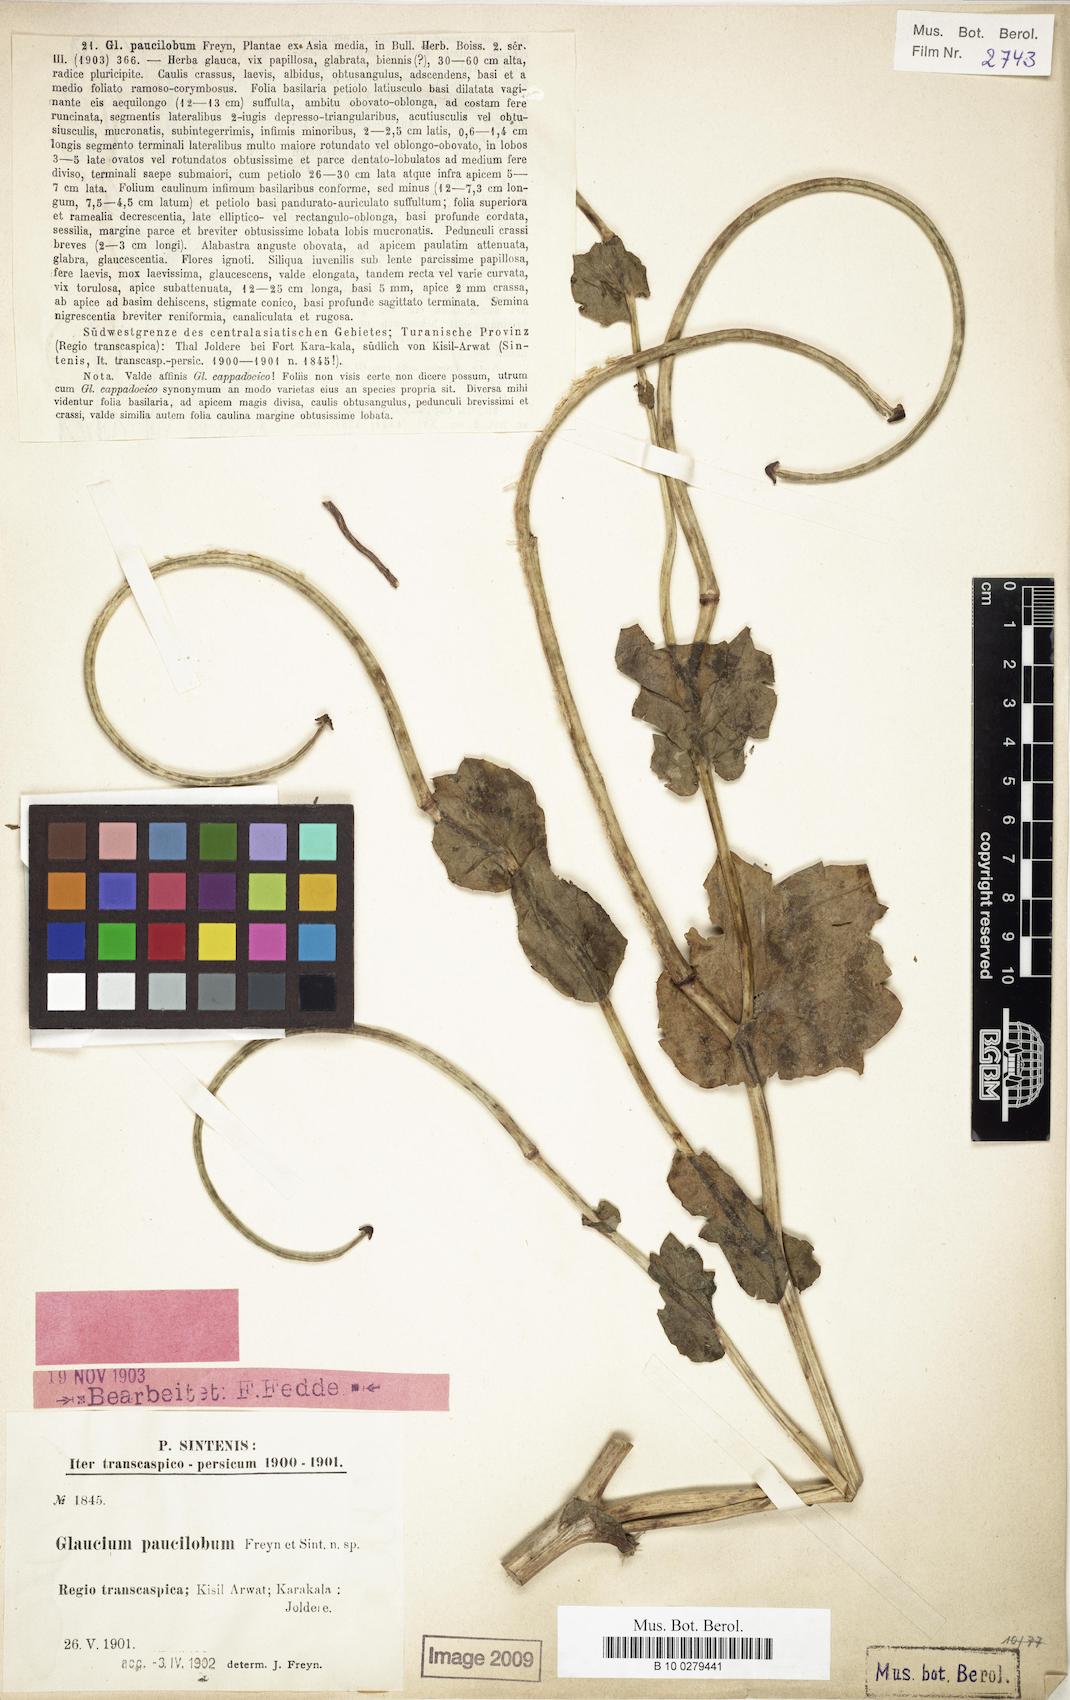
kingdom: Plantae
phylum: Tracheophyta
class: Magnoliopsida
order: Ranunculales
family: Papaveraceae
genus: Glaucium
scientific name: Glaucium oxylobum
